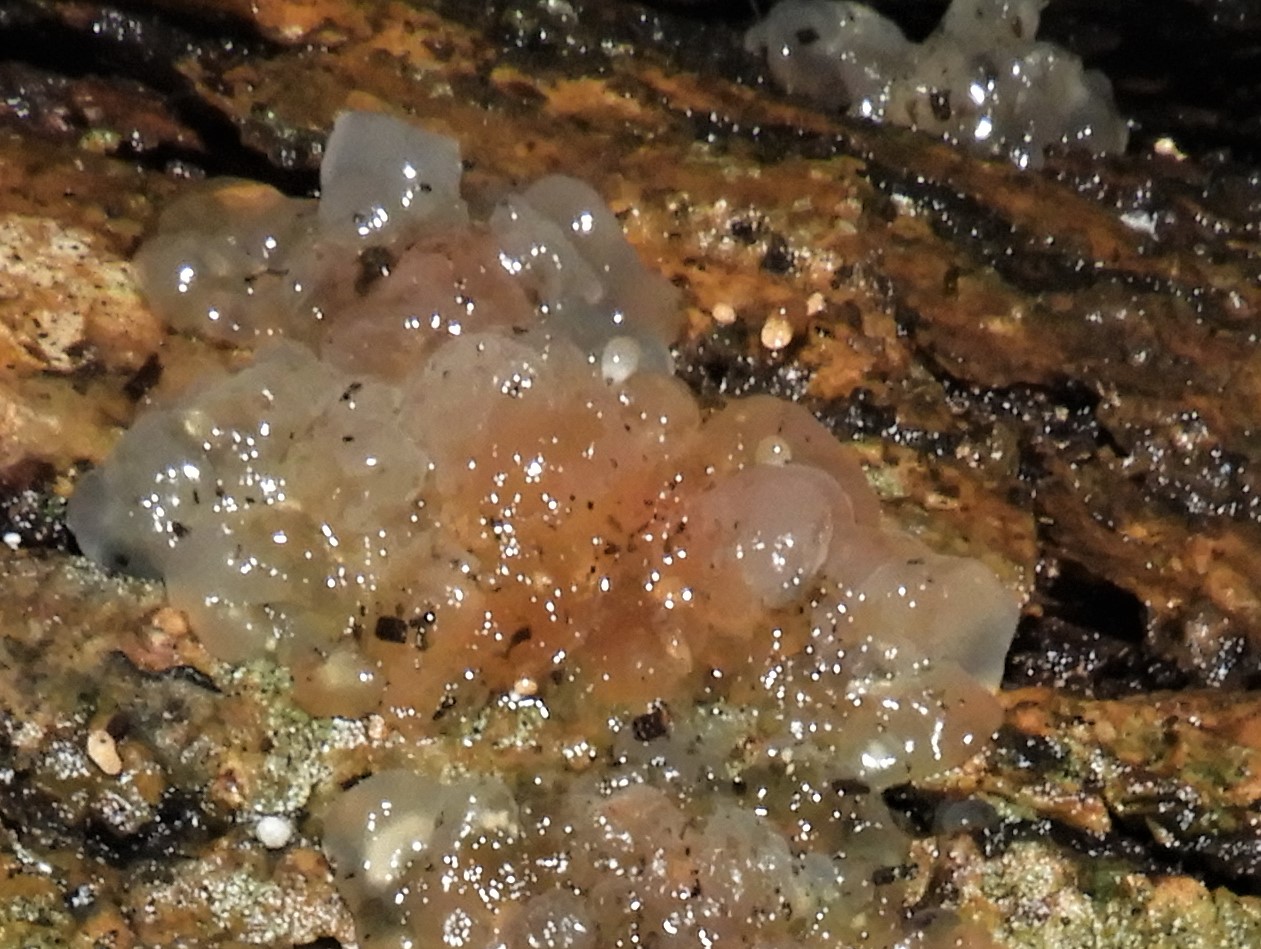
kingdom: Fungi
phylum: Basidiomycota
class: Agaricomycetes
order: Auriculariales
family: Hyaloriaceae
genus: Myxarium
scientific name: Myxarium nucleatum
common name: klar bævretop
